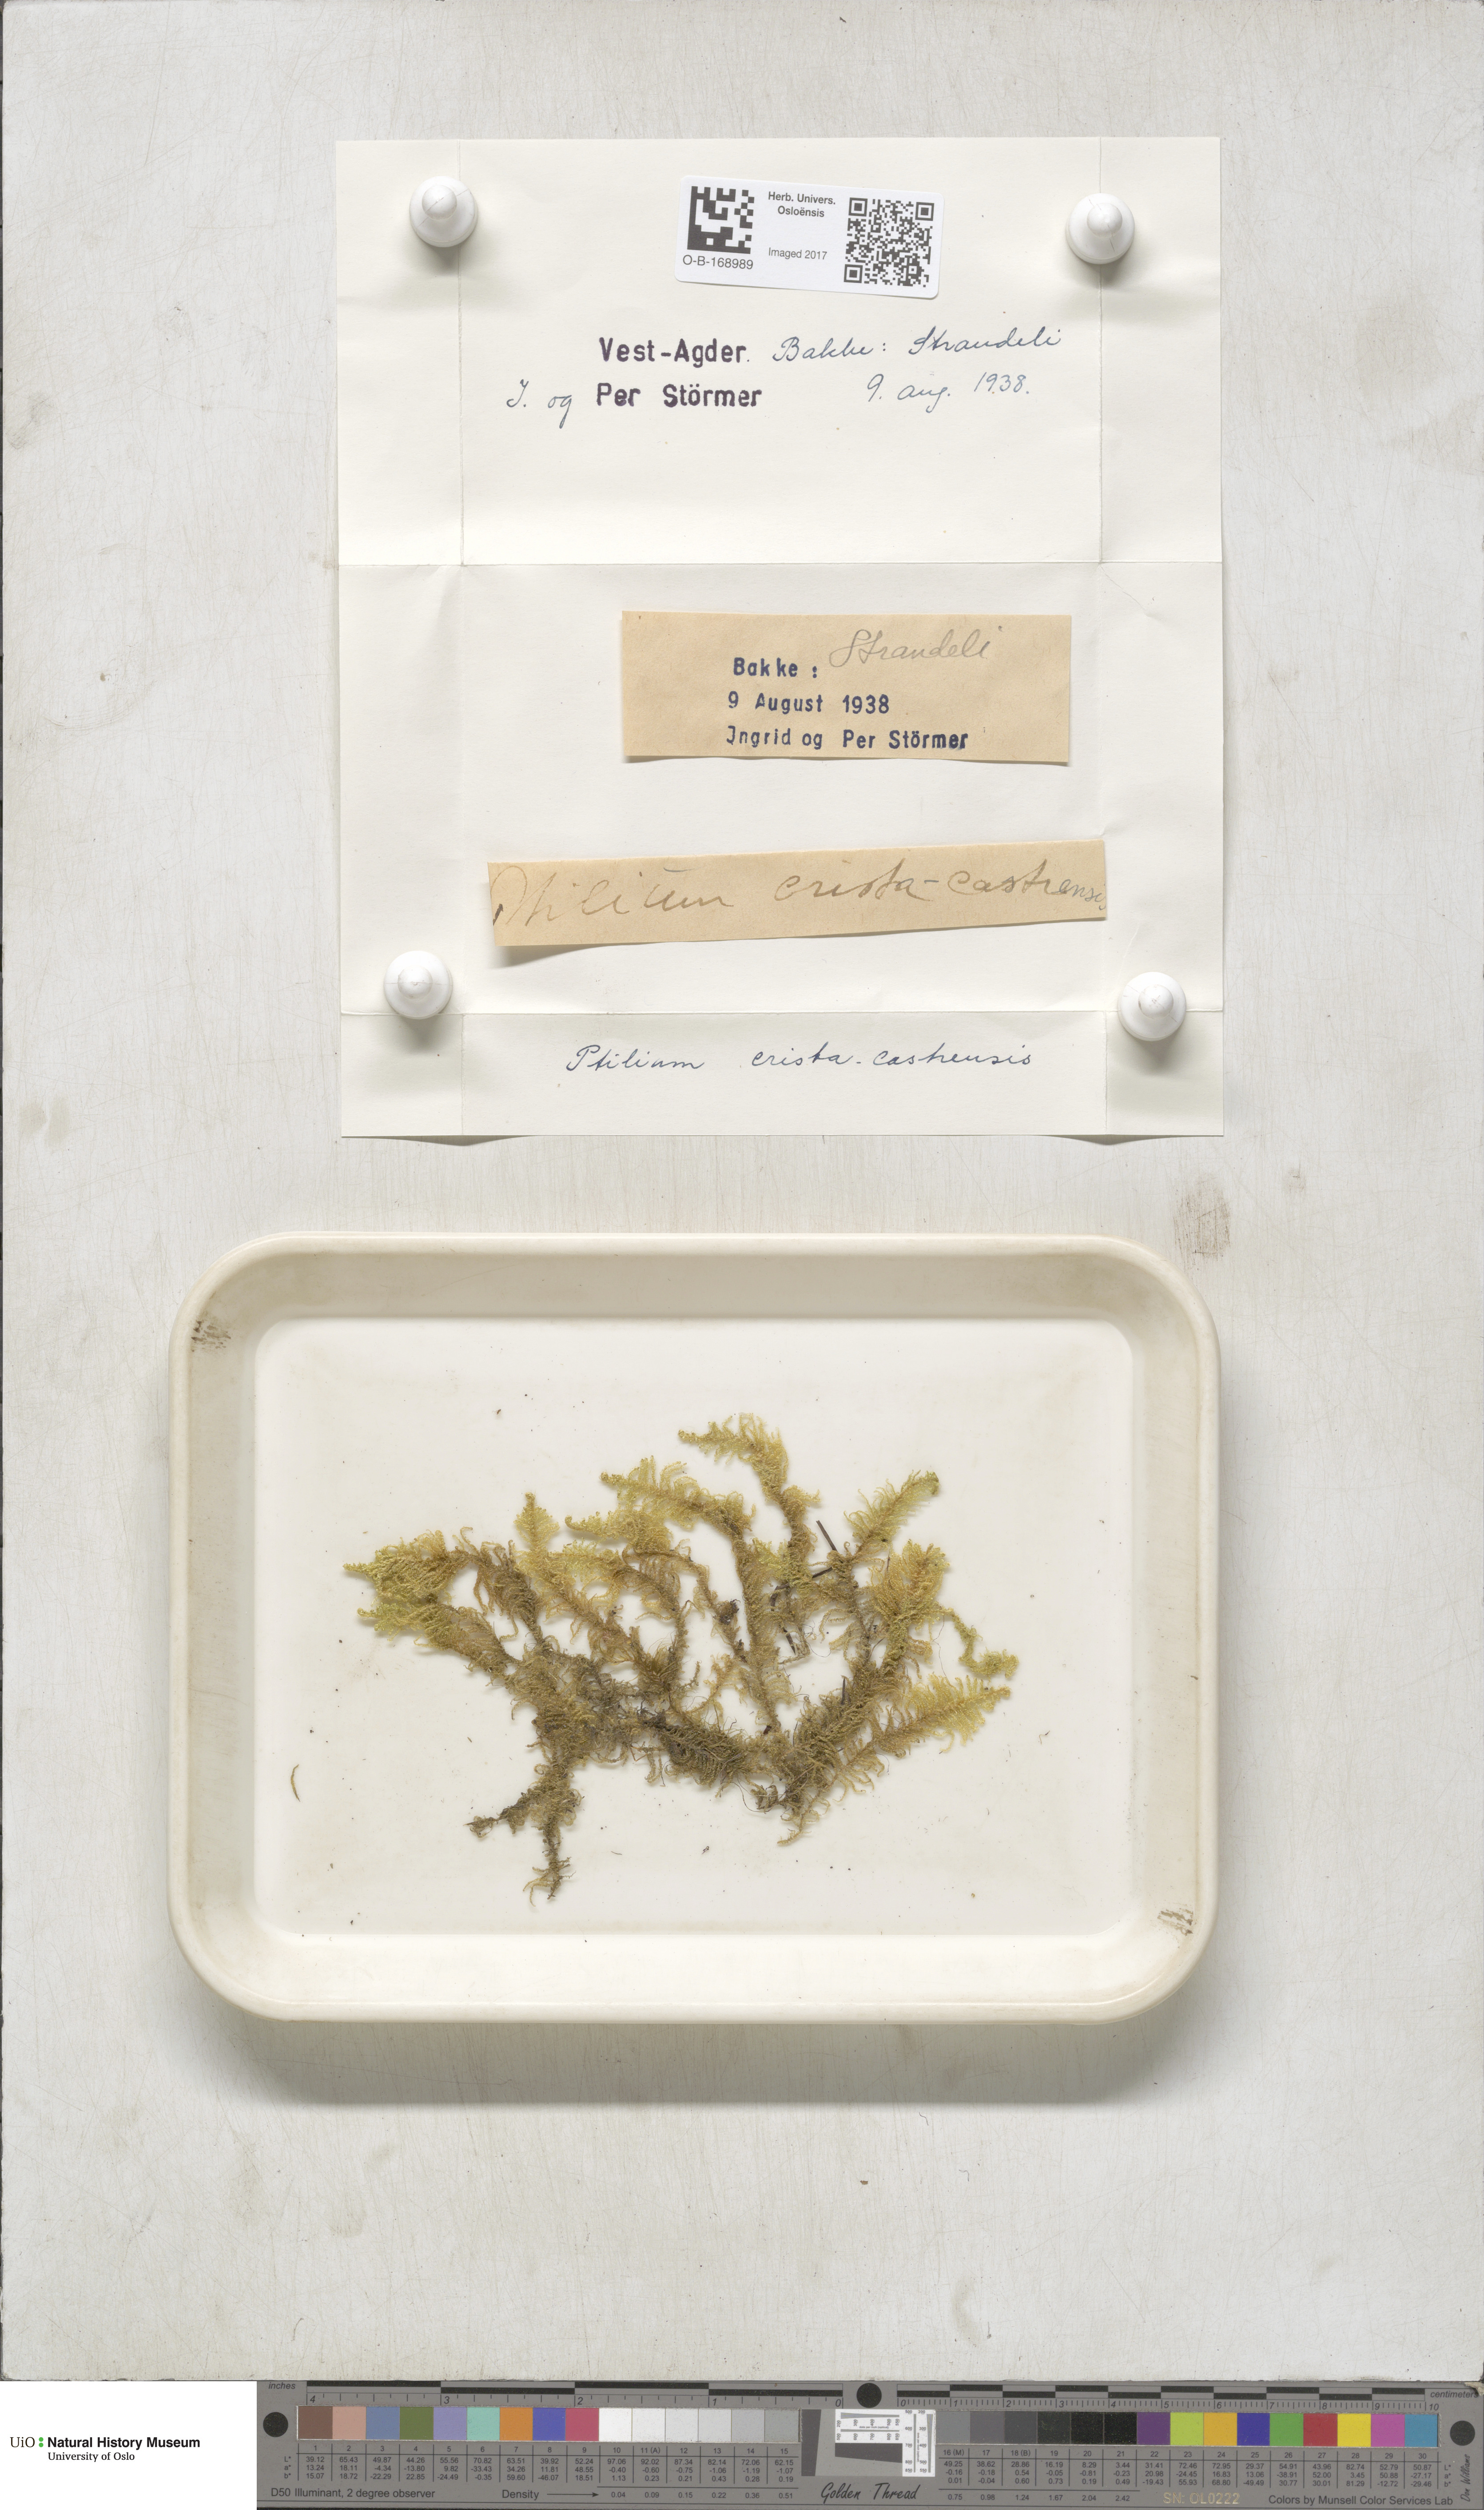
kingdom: Plantae
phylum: Bryophyta
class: Bryopsida
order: Hypnales
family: Pylaisiaceae
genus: Ptilium
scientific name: Ptilium crista-castrensis
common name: Knight's plume moss
